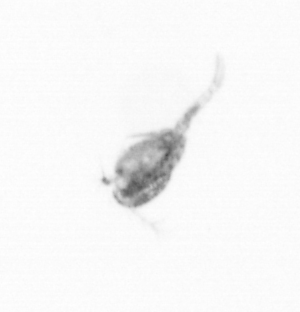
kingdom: Animalia
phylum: Arthropoda
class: Copepoda
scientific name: Copepoda
